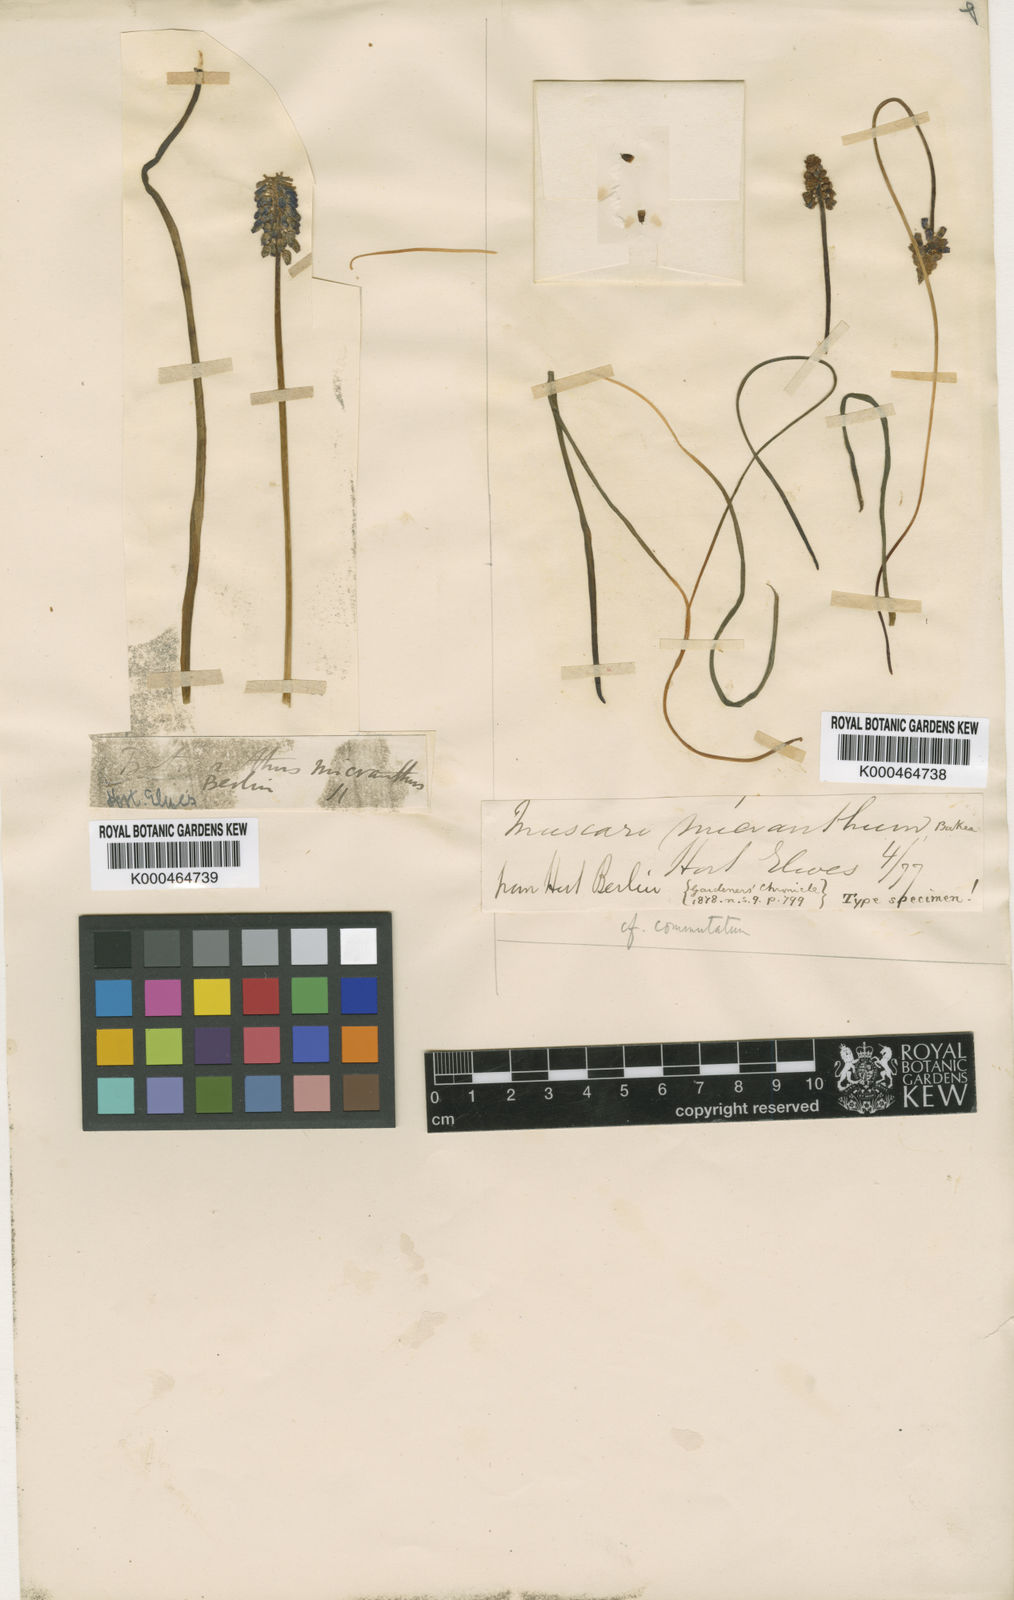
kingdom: Plantae
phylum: Tracheophyta
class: Liliopsida
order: Asparagales
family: Asparagaceae
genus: Muscari
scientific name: Muscari armeniacum
